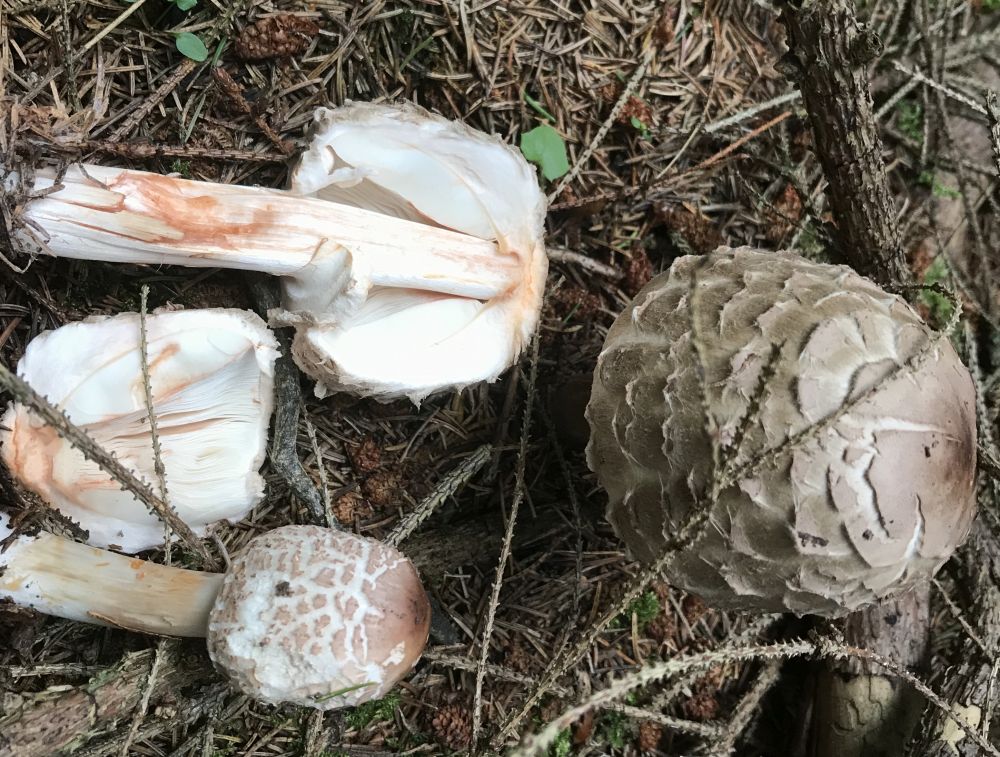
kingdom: Fungi
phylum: Basidiomycota
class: Agaricomycetes
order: Agaricales
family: Agaricaceae
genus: Chlorophyllum
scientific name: Chlorophyllum olivieri
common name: almindelig rabarberhat
